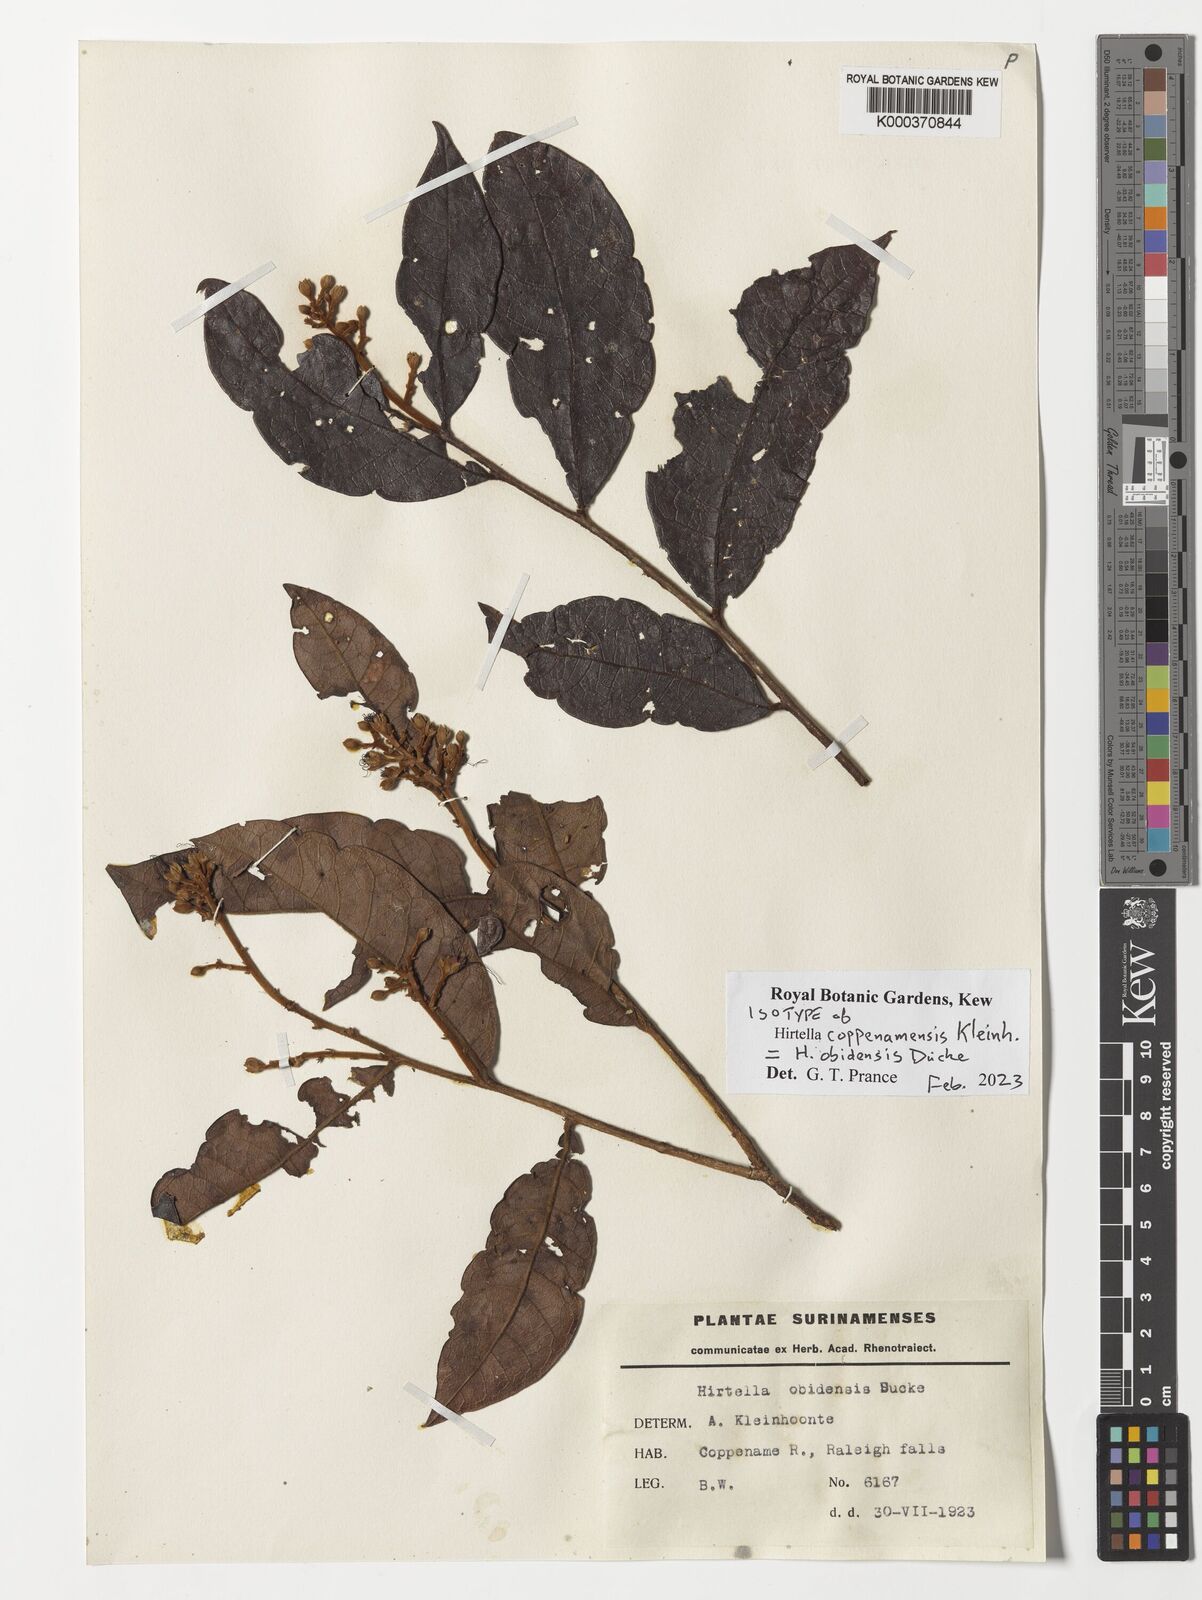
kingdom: Plantae
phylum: Tracheophyta
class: Magnoliopsida
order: Malpighiales
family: Chrysobalanaceae
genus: Hirtella
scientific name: Hirtella obidensis
